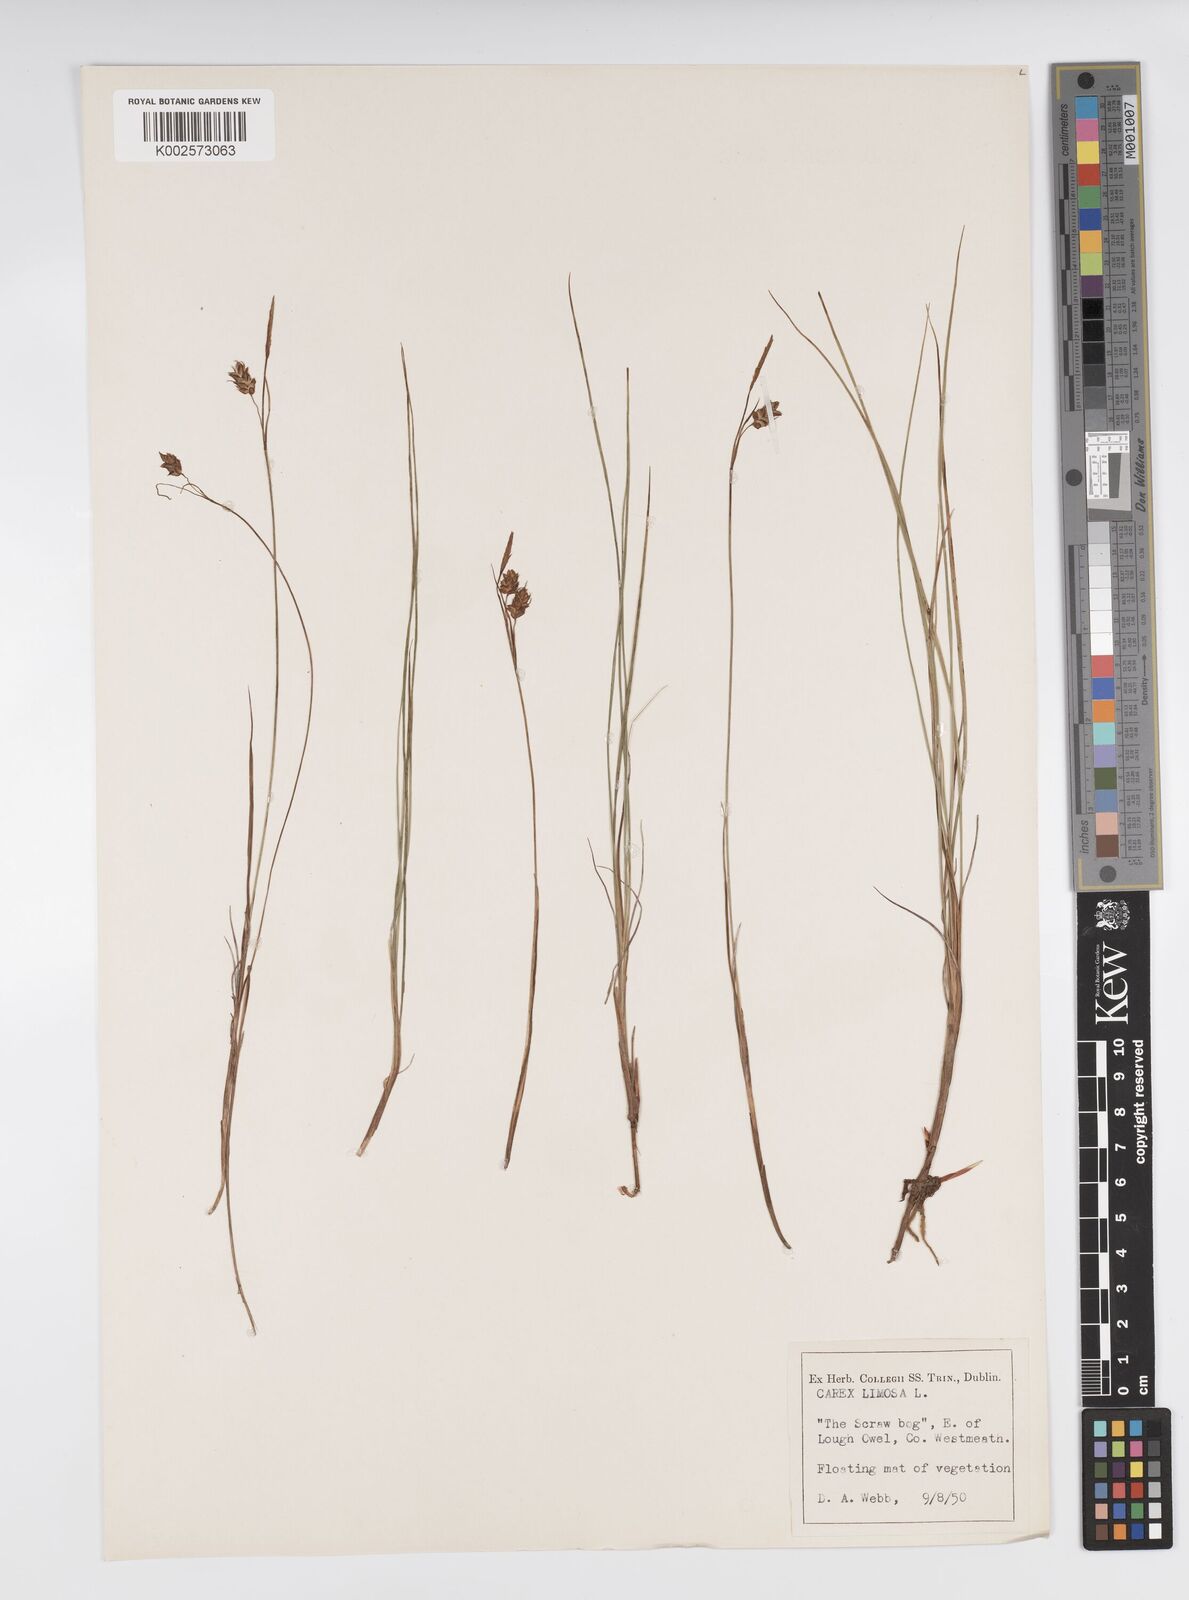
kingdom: Plantae
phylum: Tracheophyta
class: Liliopsida
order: Poales
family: Cyperaceae
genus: Carex
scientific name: Carex limosa
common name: Bog sedge
